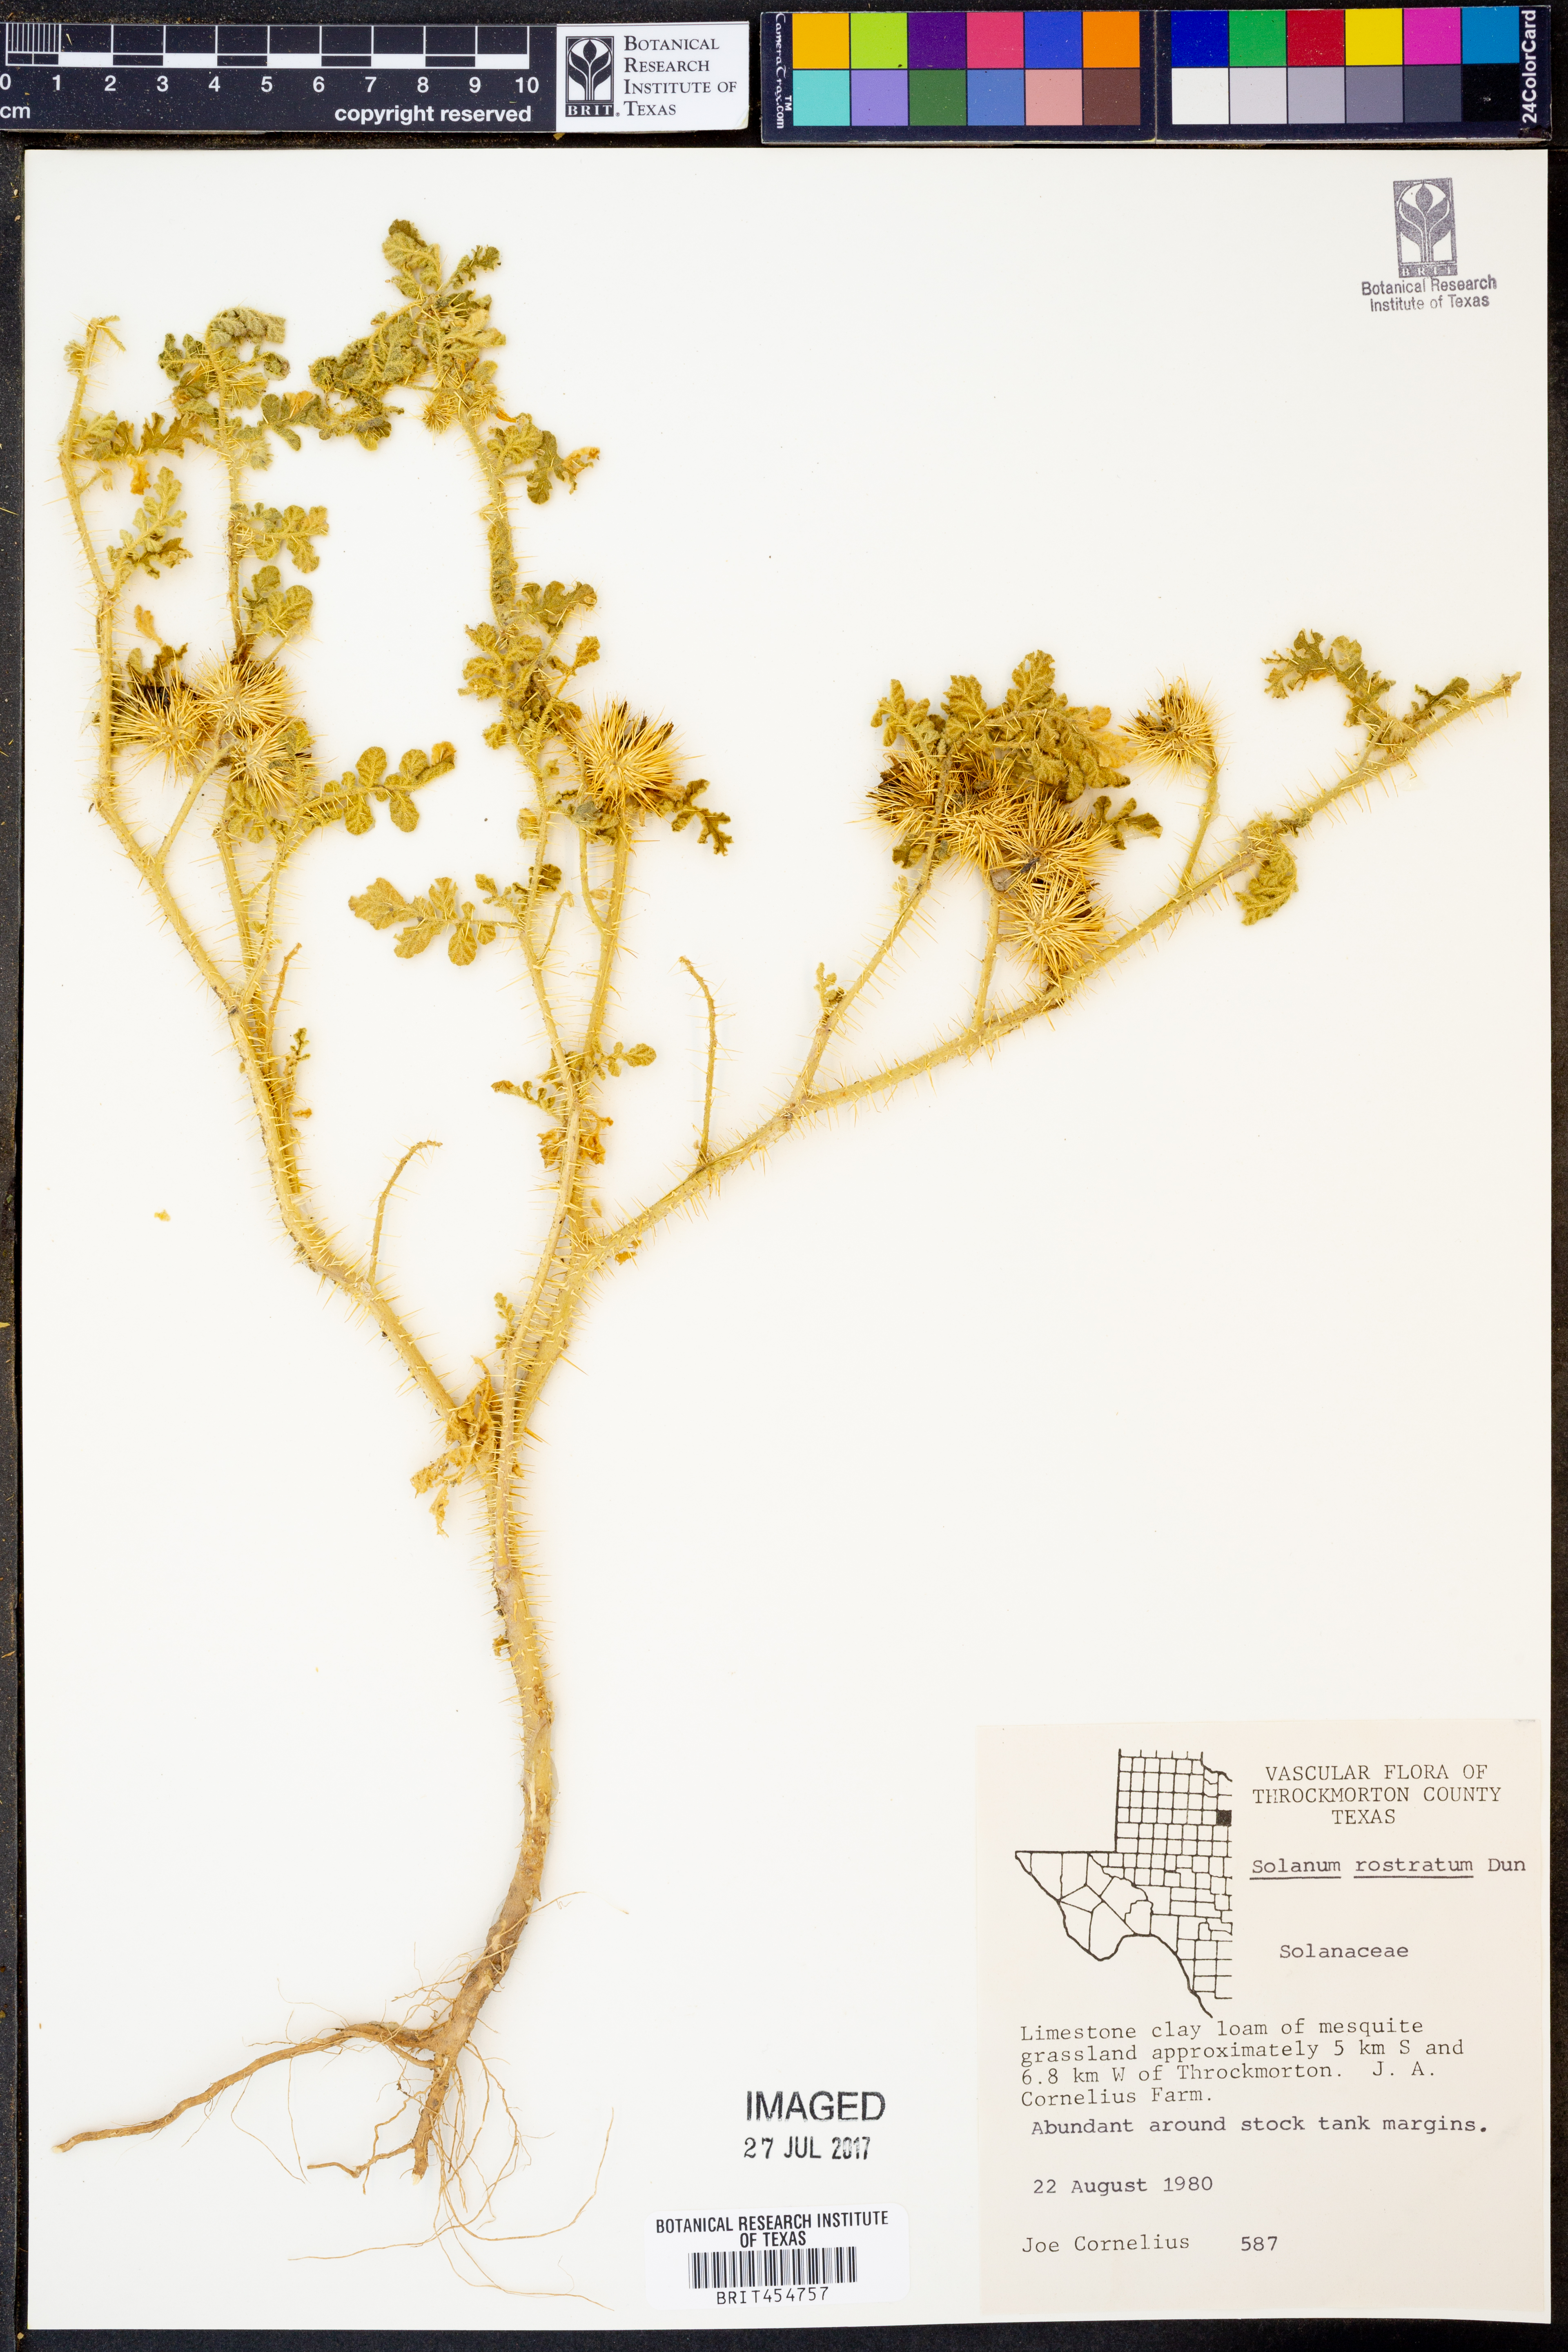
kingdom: Plantae
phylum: Tracheophyta
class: Magnoliopsida
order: Solanales
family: Solanaceae
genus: Solanum
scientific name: Solanum angustifolium
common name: Buffalobur nightshade
